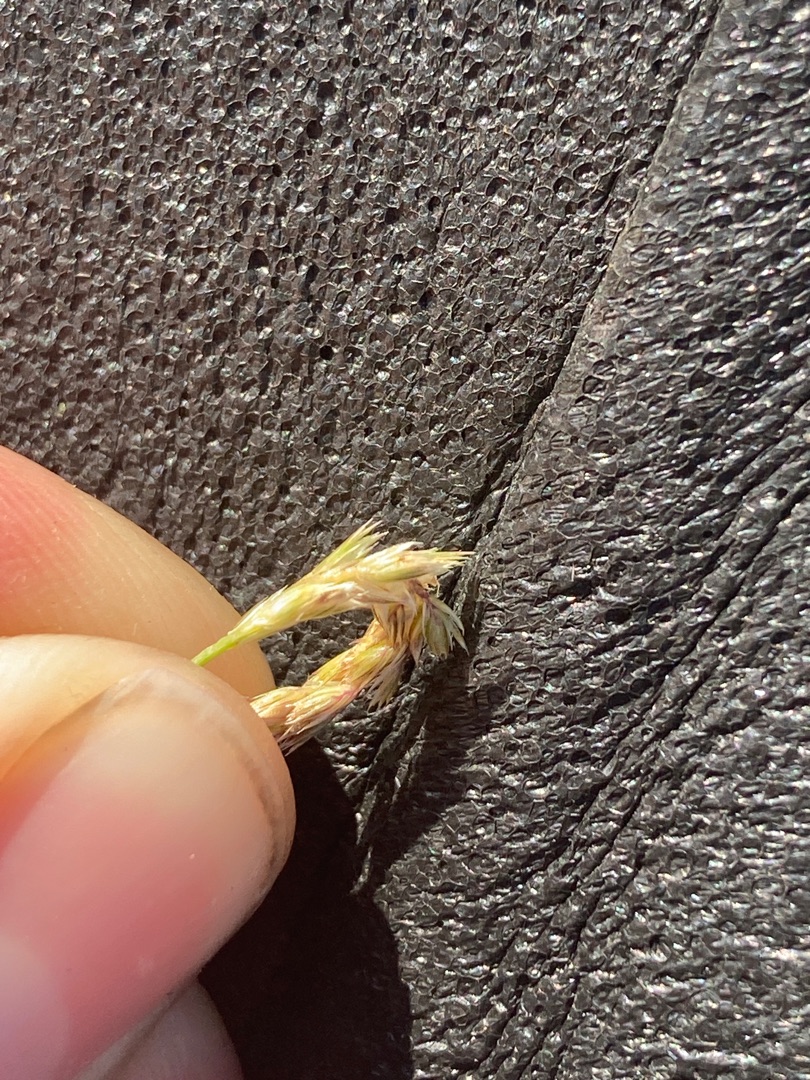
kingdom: Plantae
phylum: Tracheophyta
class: Liliopsida
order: Poales
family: Poaceae
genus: Cynosurus
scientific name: Cynosurus cristatus
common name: Kamgræs
